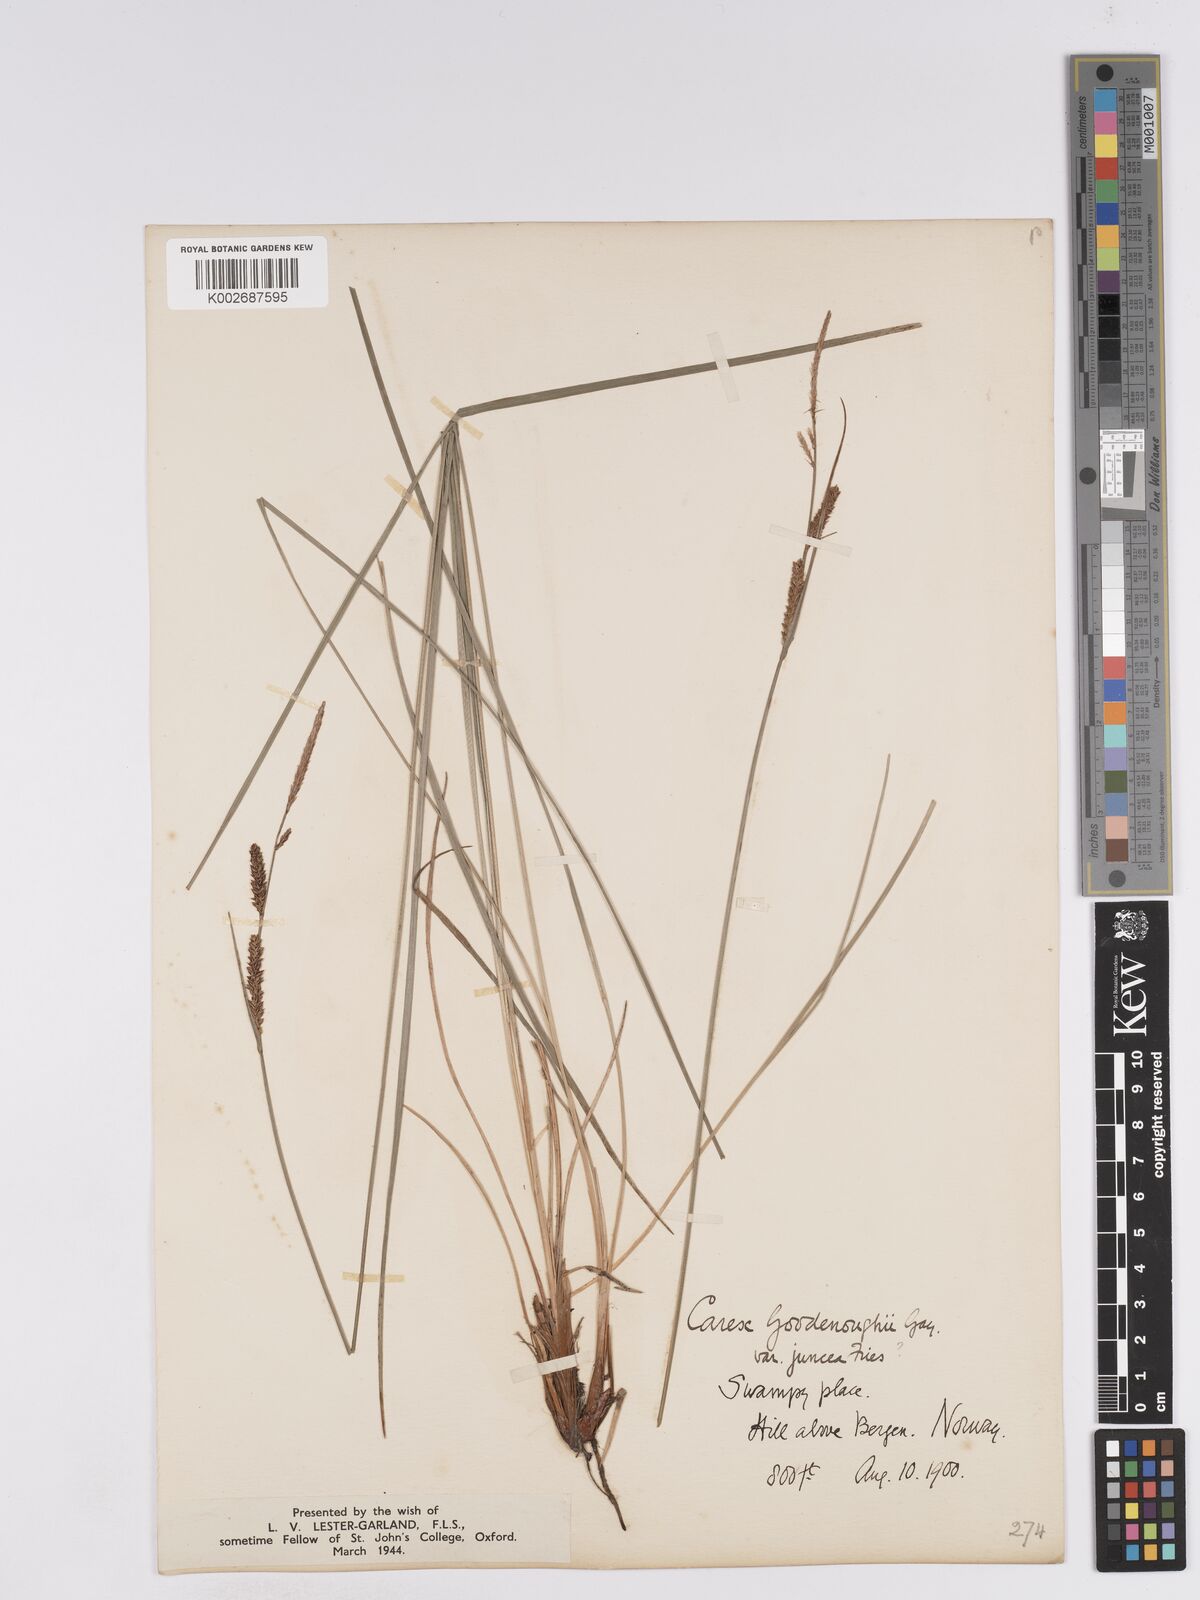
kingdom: Plantae
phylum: Tracheophyta
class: Liliopsida
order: Poales
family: Cyperaceae
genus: Carex
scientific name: Carex
